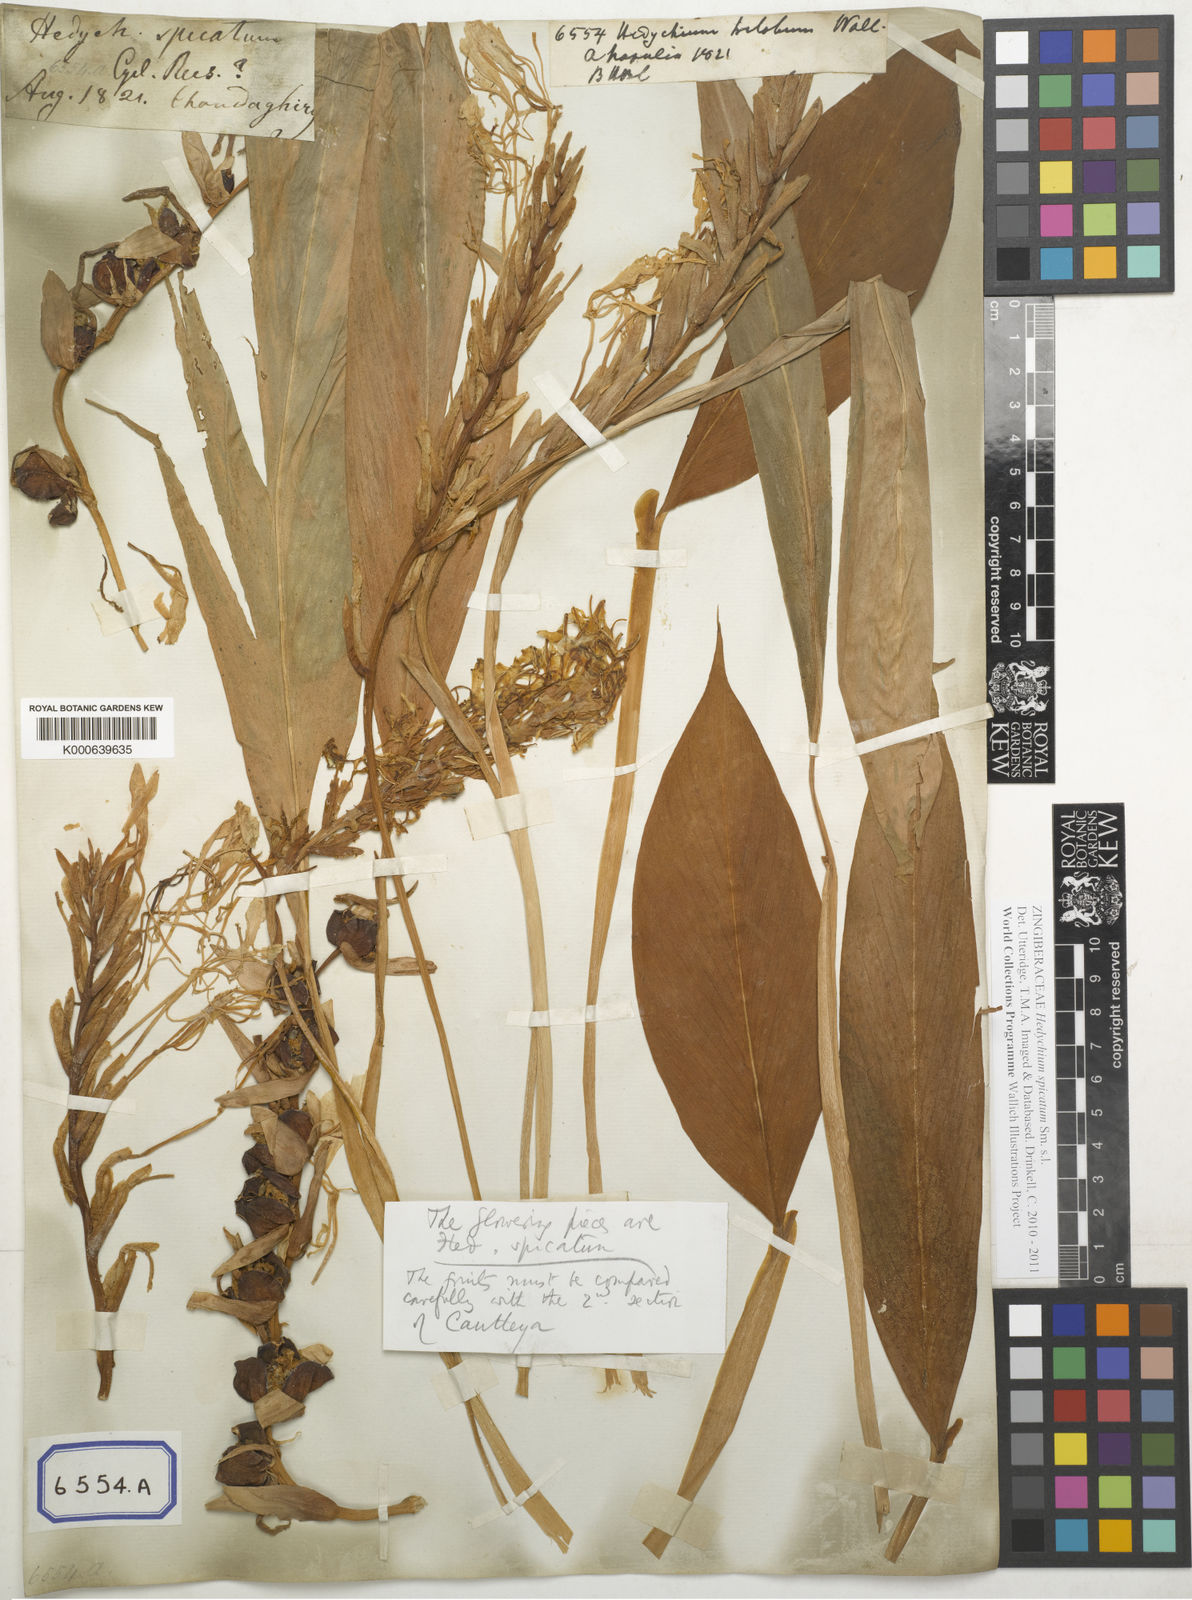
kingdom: Plantae
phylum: Tracheophyta
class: Liliopsida
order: Zingiberales
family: Zingiberaceae
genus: Hedychium
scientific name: Hedychium
